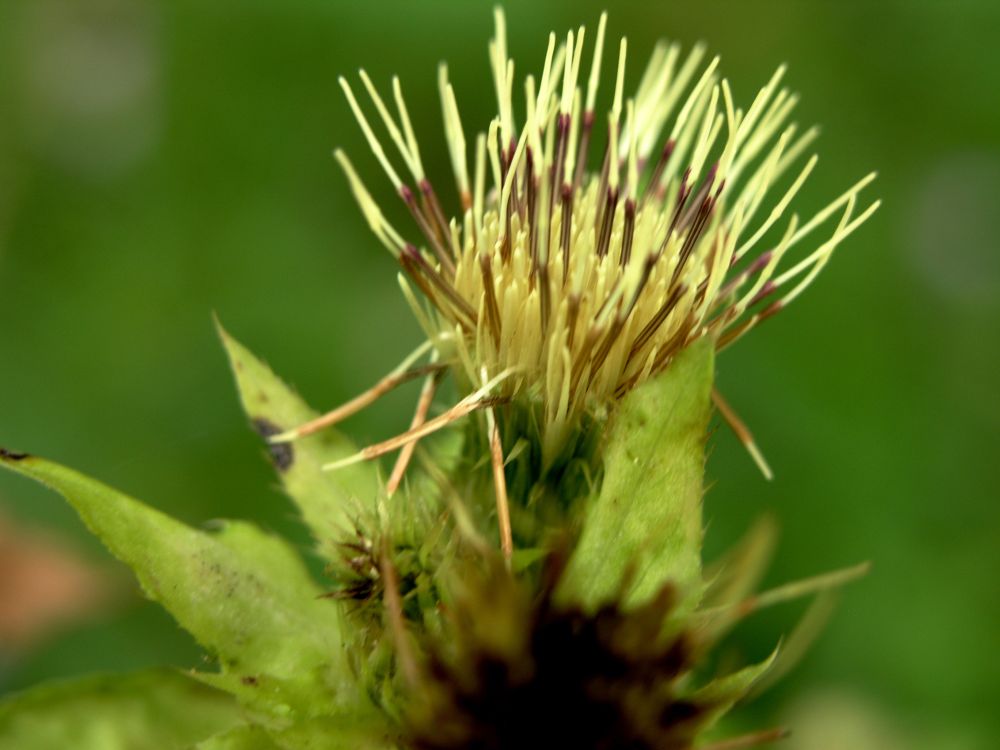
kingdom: Plantae
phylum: Tracheophyta
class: Magnoliopsida
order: Asterales
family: Asteraceae
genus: Cirsium
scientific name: Cirsium oleraceum
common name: Cabbage thistle
